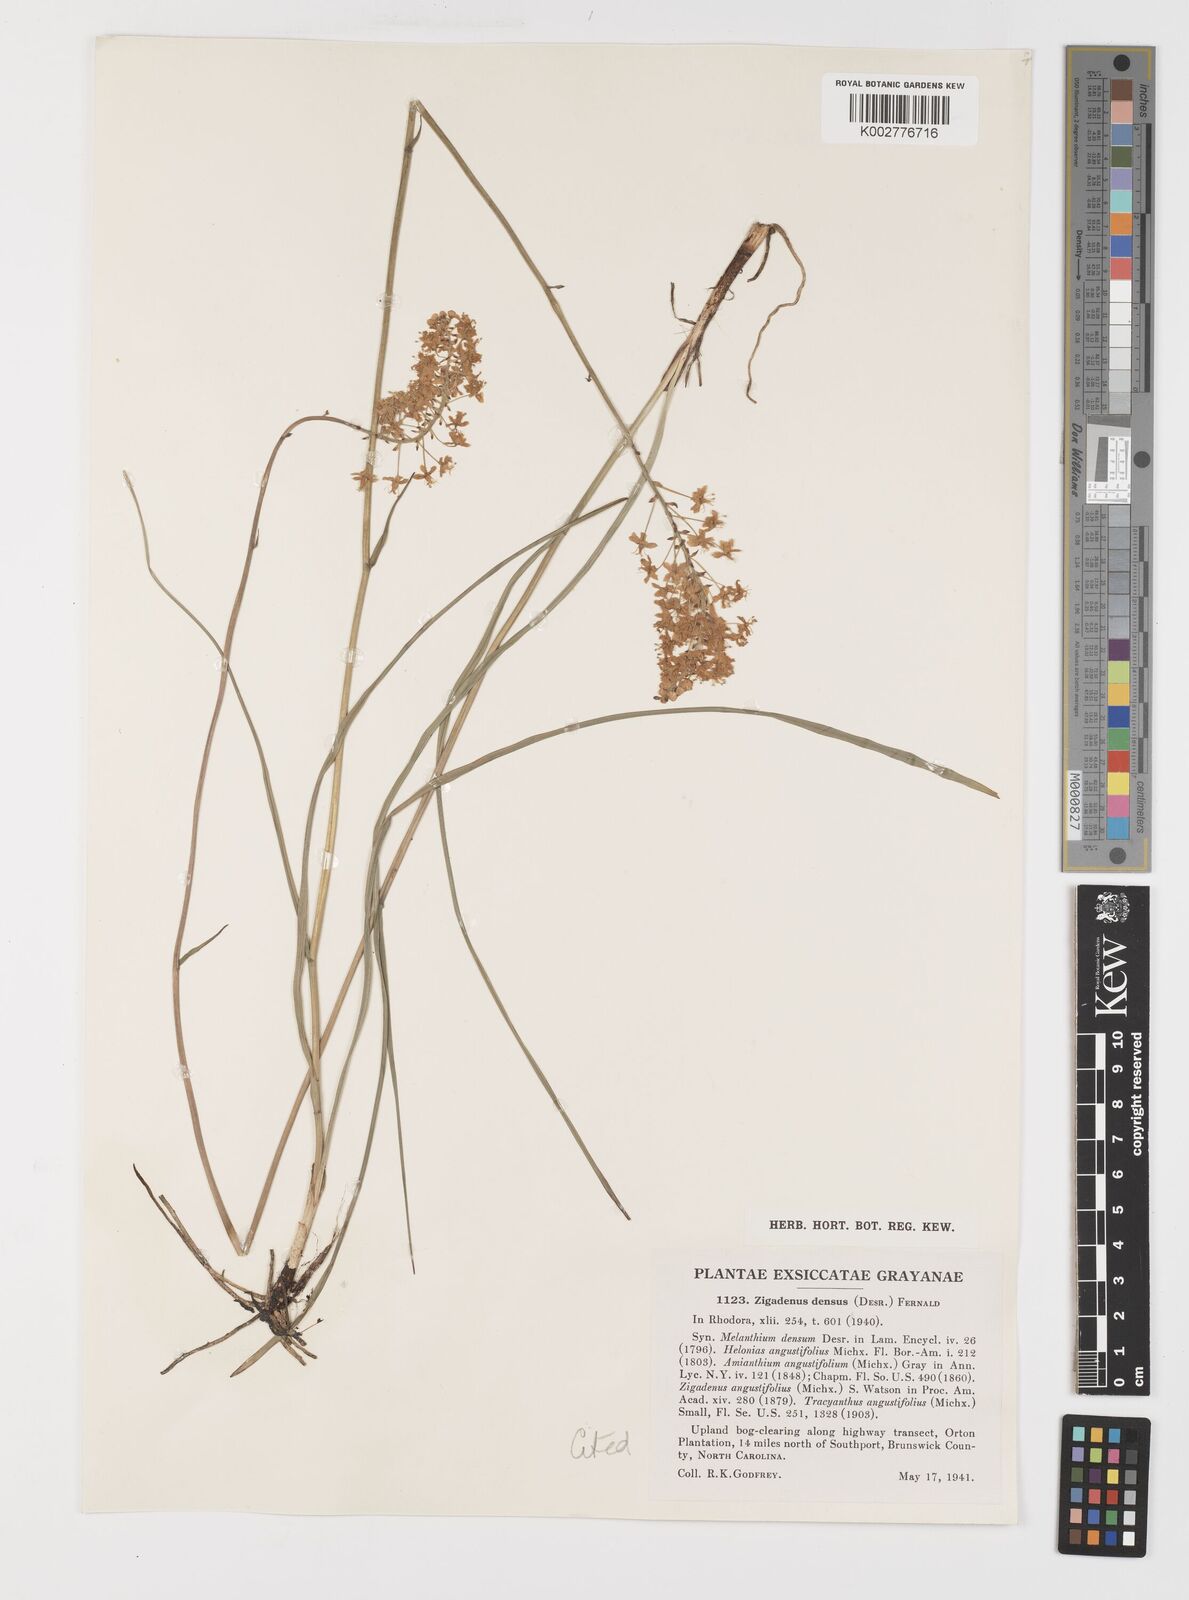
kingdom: Plantae
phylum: Tracheophyta
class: Liliopsida
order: Liliales
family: Melanthiaceae
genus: Stenanthium
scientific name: Stenanthium densum
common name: Crow-poison
